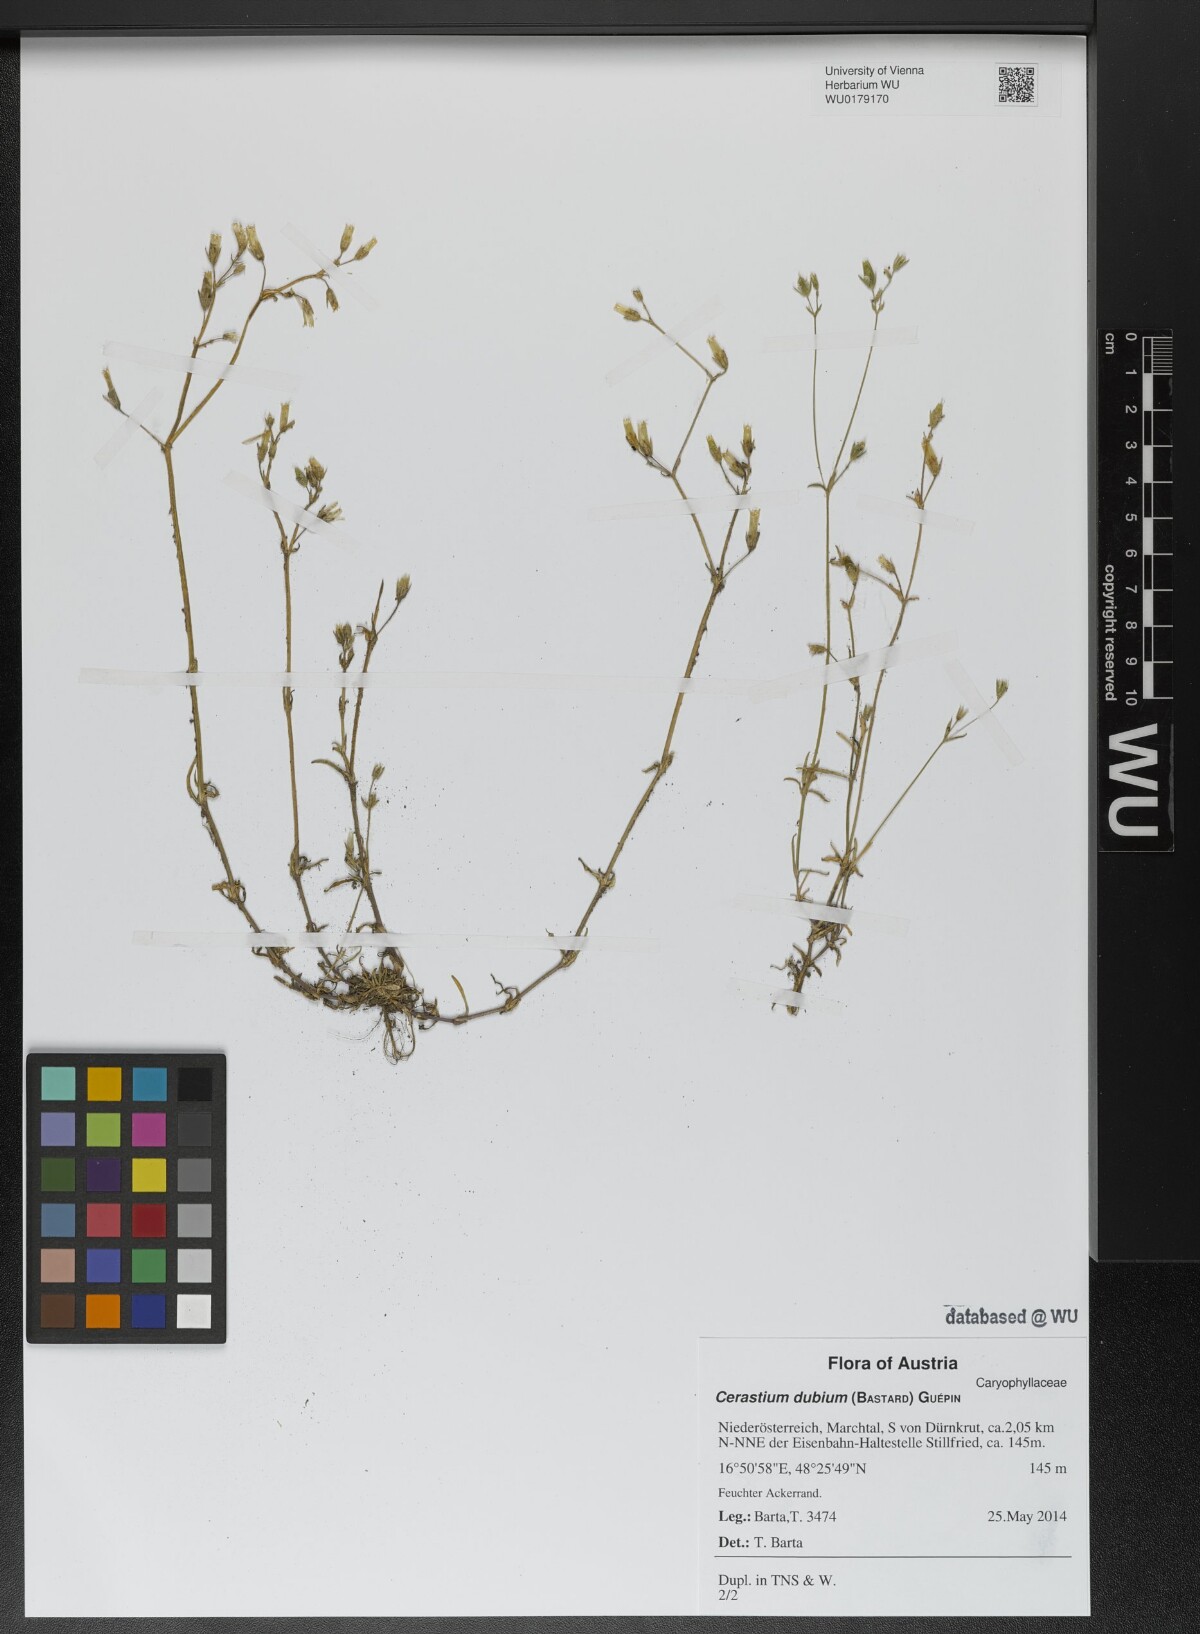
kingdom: Plantae
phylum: Tracheophyta
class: Magnoliopsida
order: Caryophyllales
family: Caryophyllaceae
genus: Dichodon
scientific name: Dichodon viscidum
